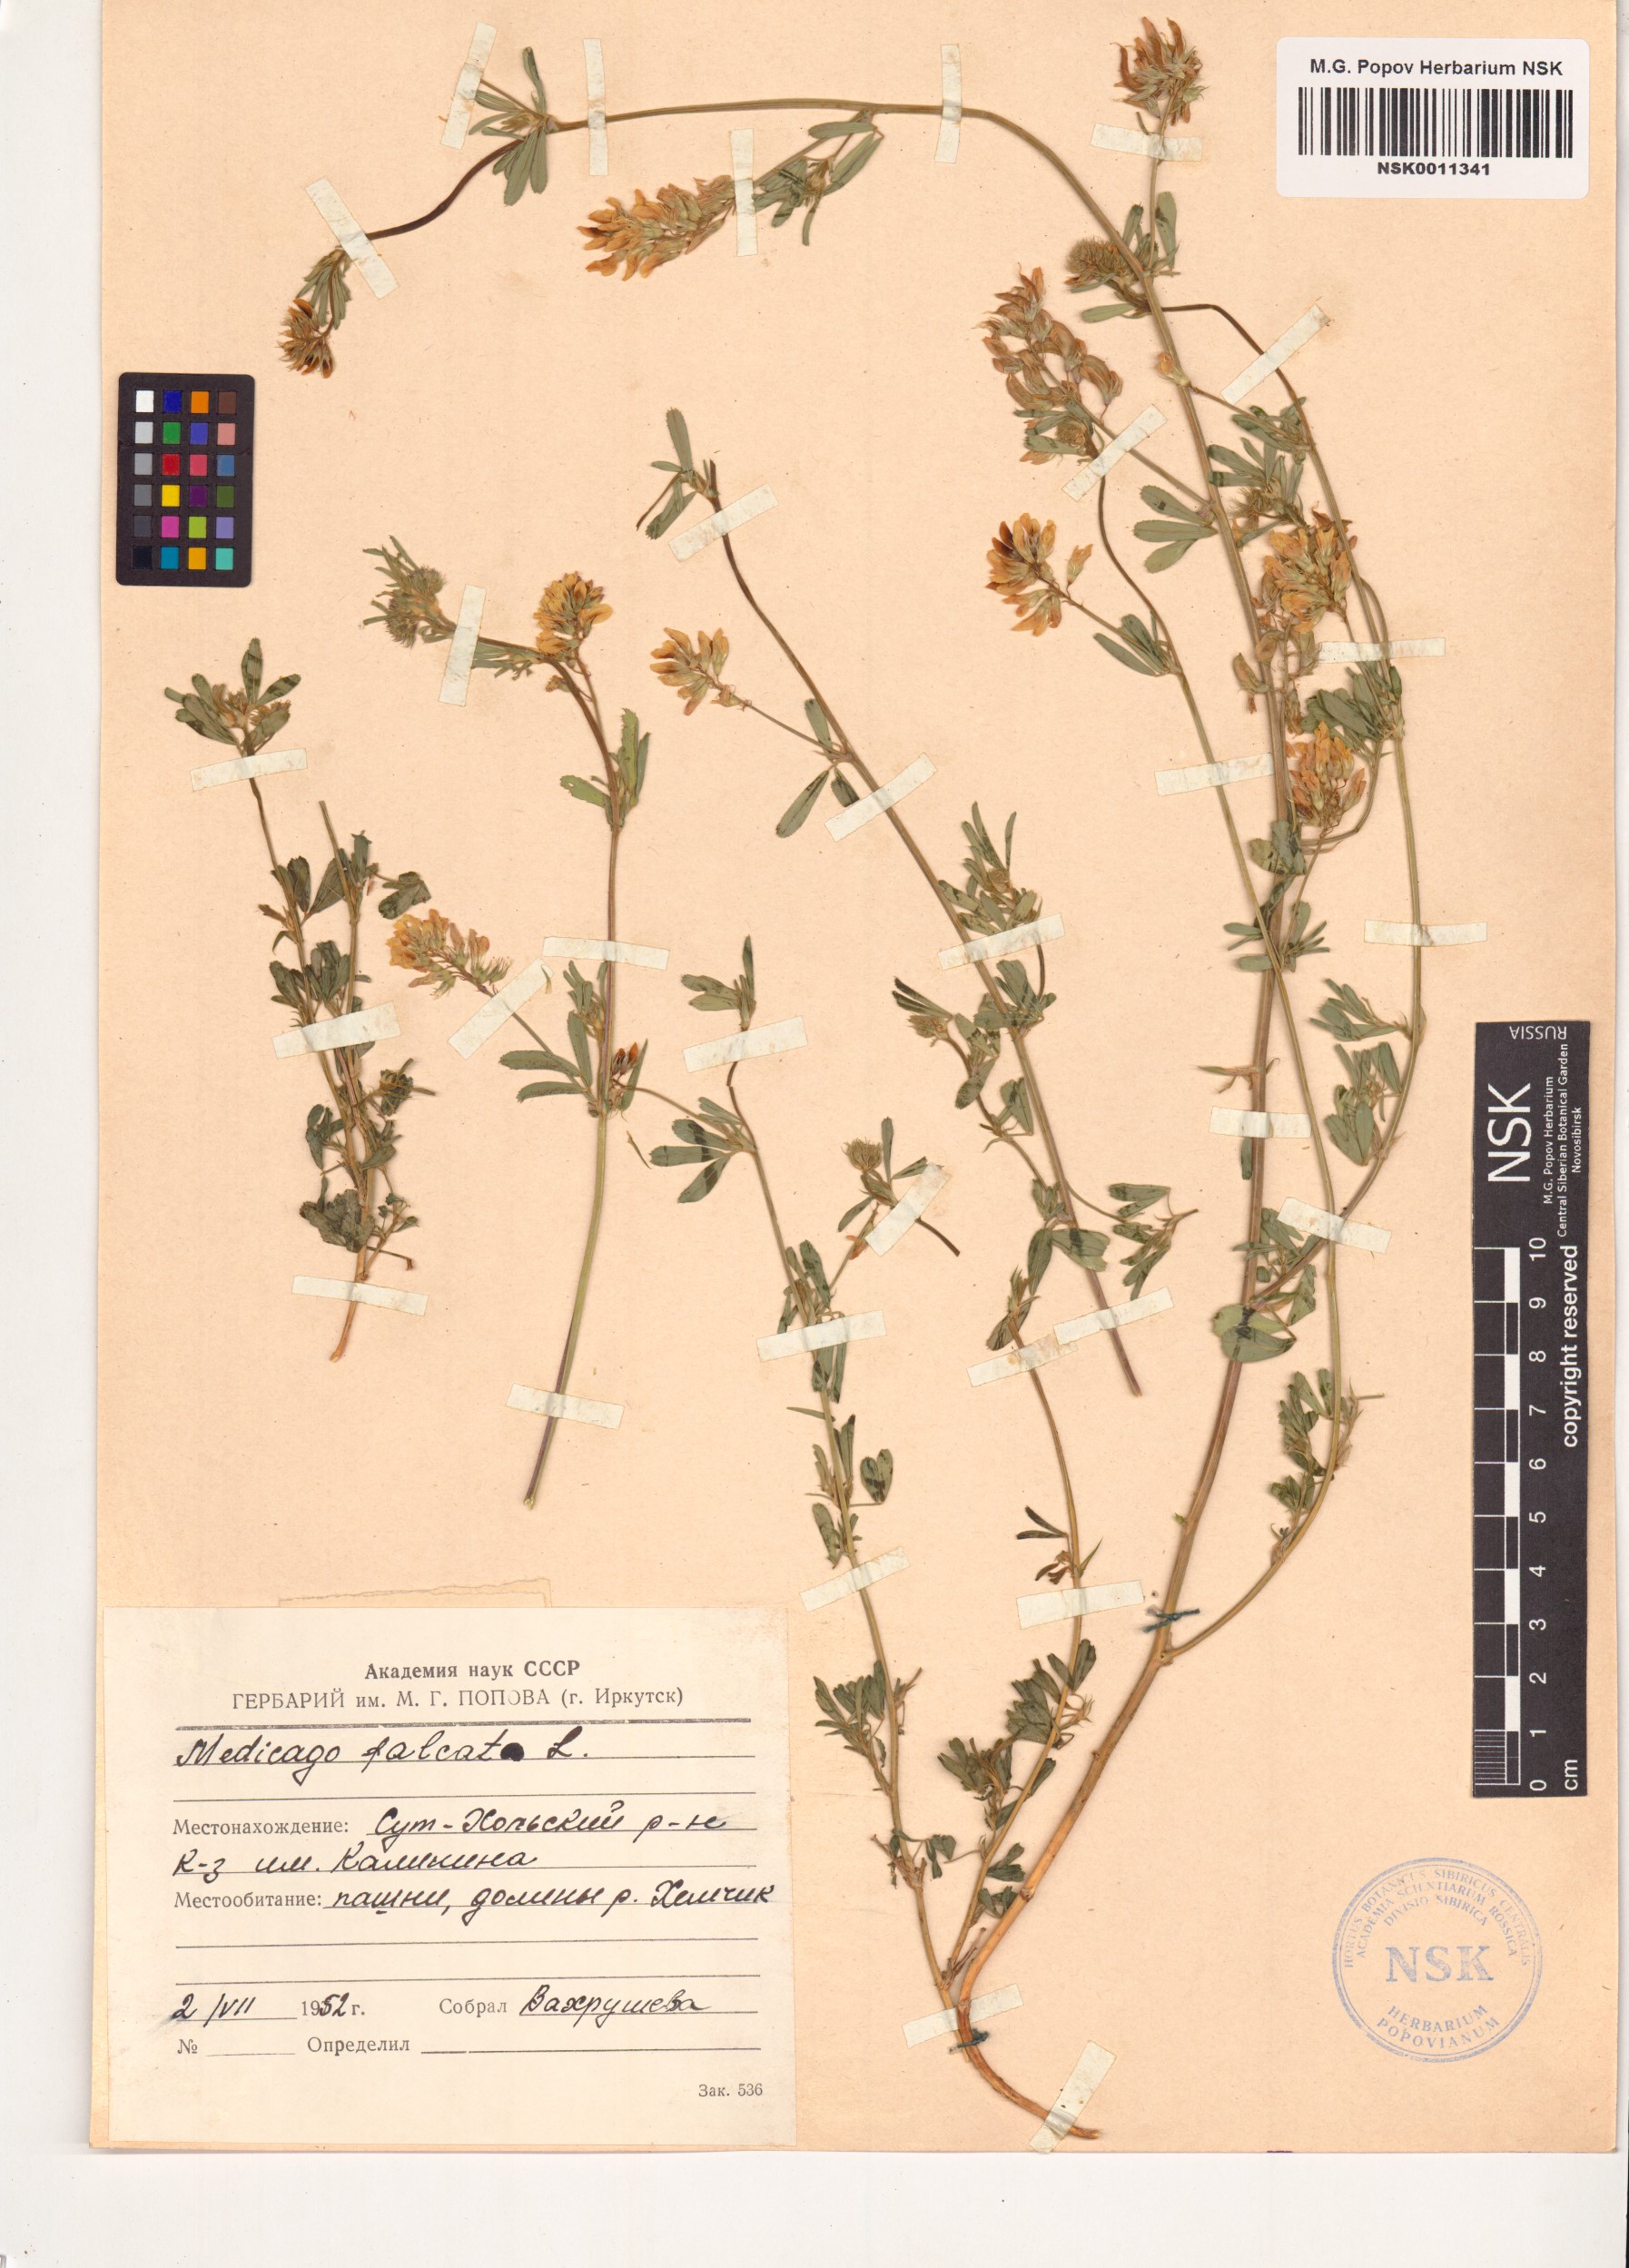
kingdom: Plantae
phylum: Tracheophyta
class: Magnoliopsida
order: Fabales
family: Fabaceae
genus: Medicago
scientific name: Medicago falcata
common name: Sickle medick
